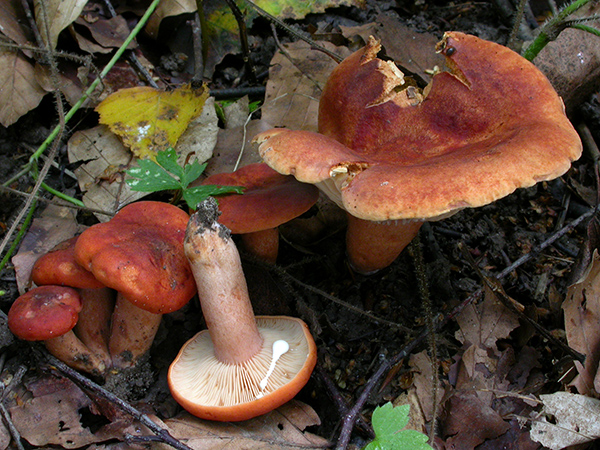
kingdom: Fungi
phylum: Basidiomycota
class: Agaricomycetes
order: Russulales
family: Russulaceae
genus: Lactarius
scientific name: Lactarius fulvissimus
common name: ræve-mælkehat
